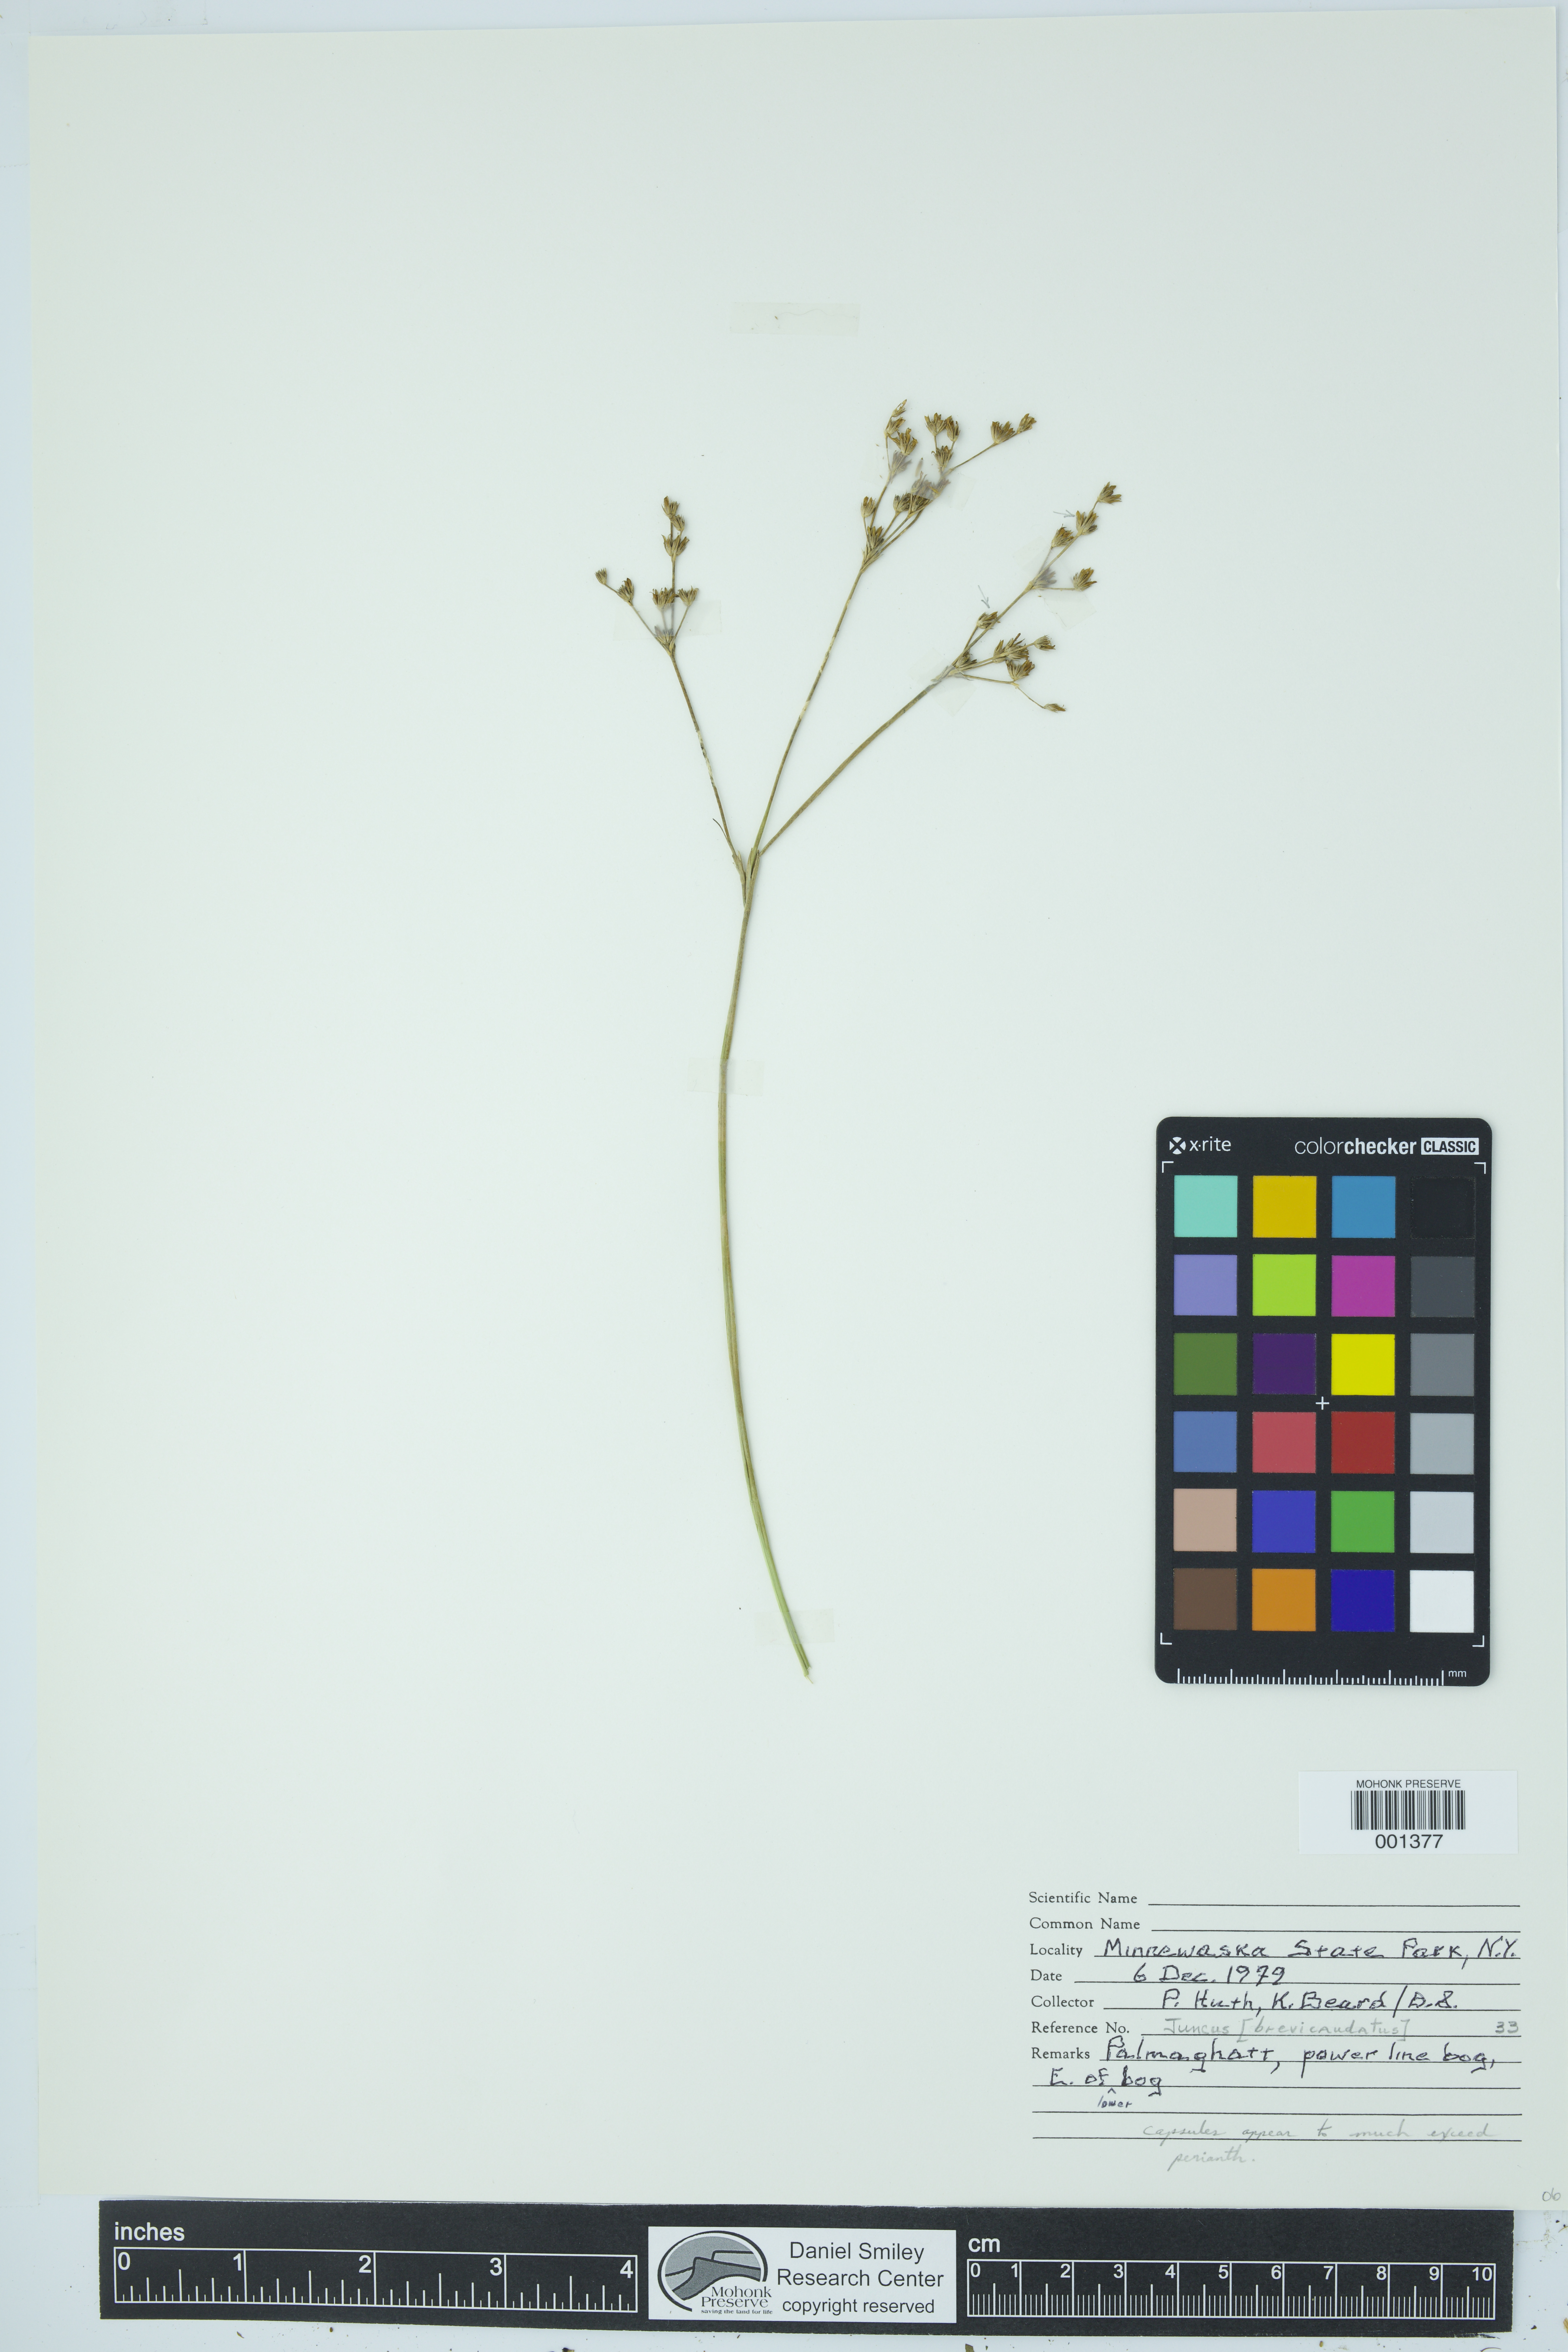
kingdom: Plantae
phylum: Tracheophyta
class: Liliopsida
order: Poales
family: Juncaceae
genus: Juncus
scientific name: Juncus brevicaudatus
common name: Narrow-panicle rush
